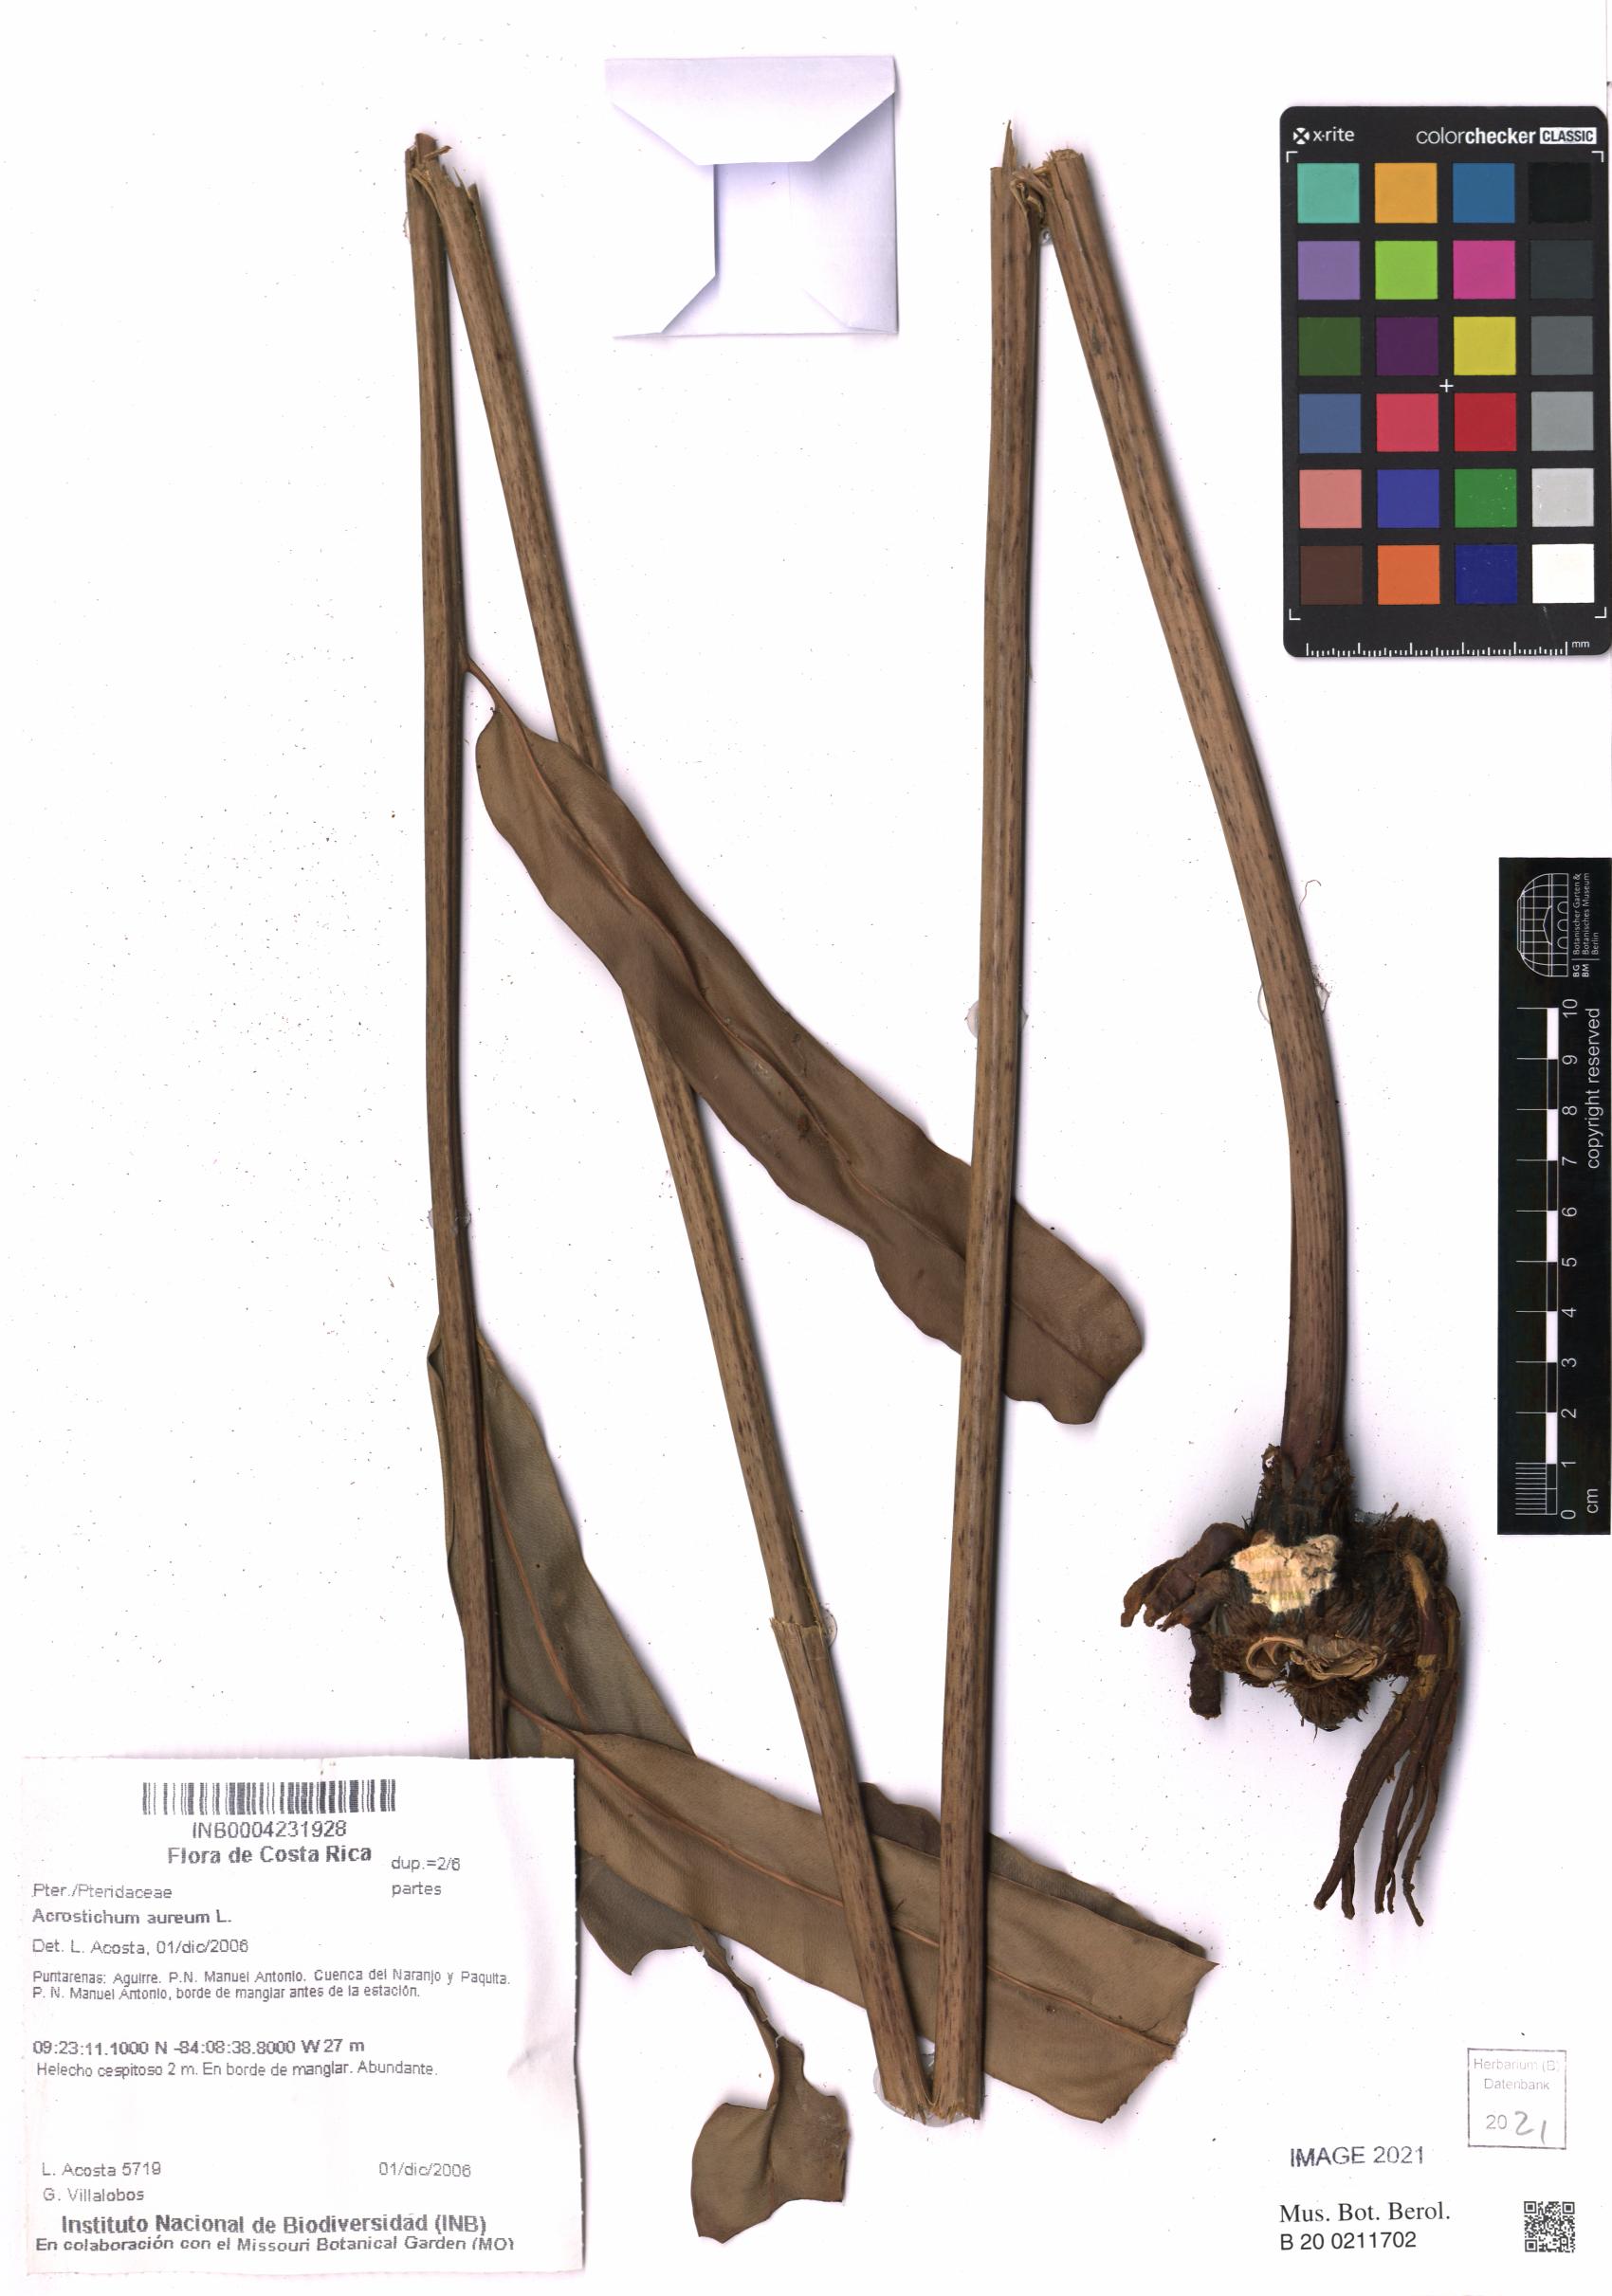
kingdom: Plantae
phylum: Tracheophyta
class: Polypodiopsida
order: Polypodiales
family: Pteridaceae
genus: Acrostichum
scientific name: Acrostichum aureum
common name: Leather fern
